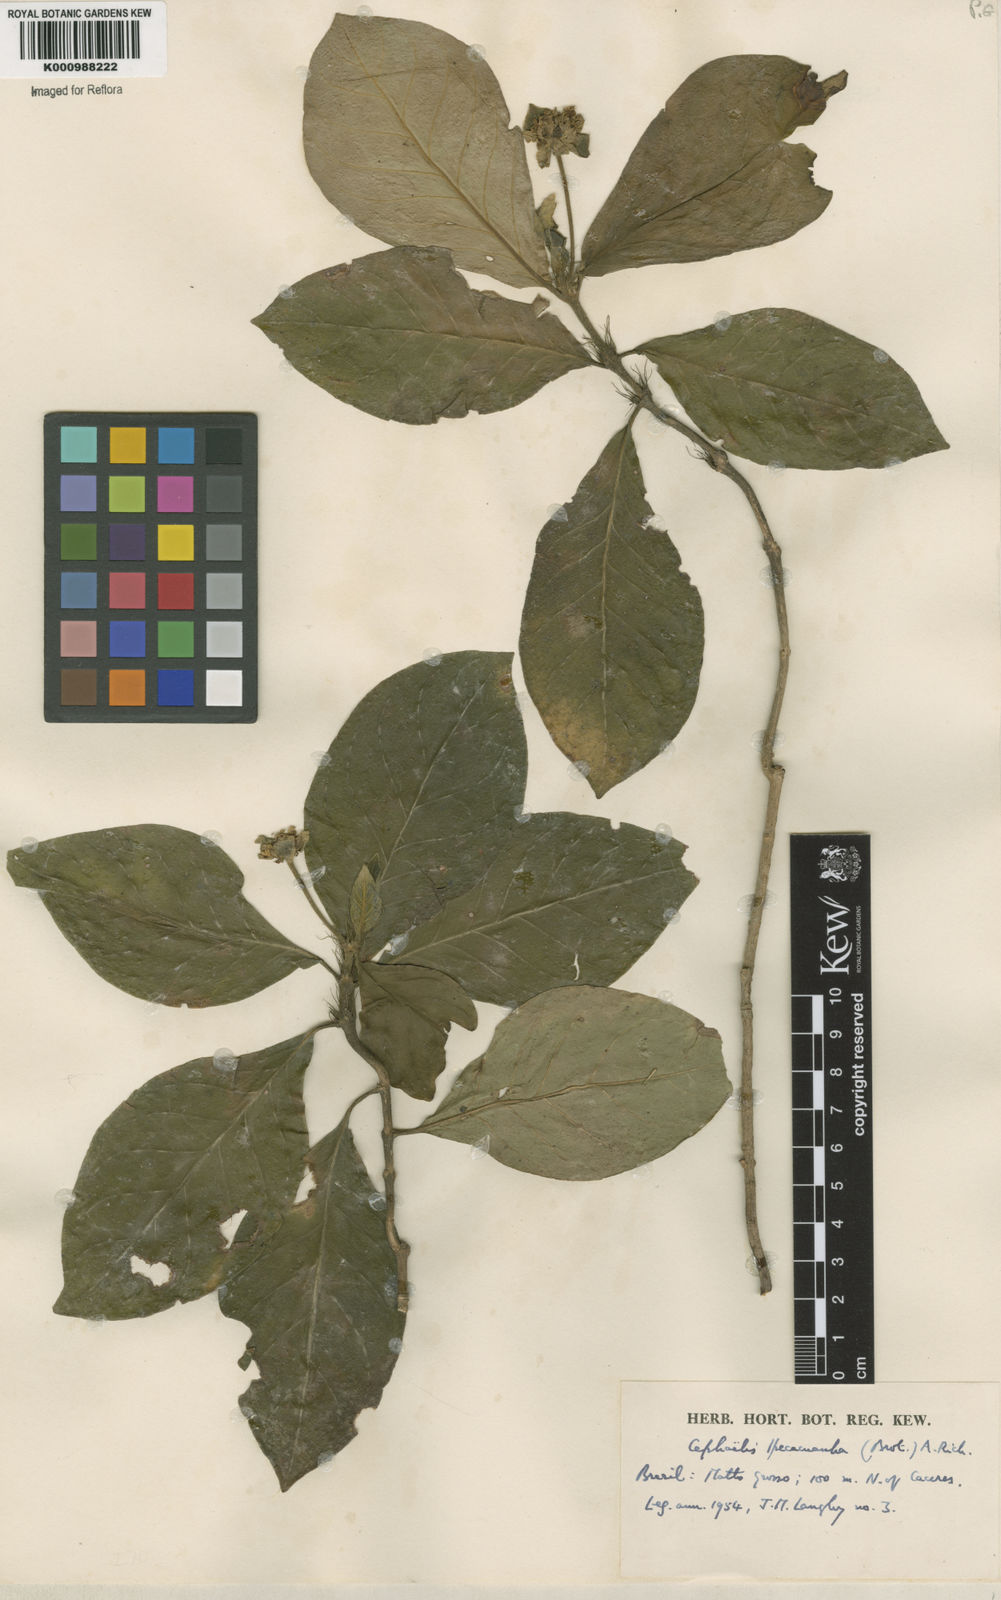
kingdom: Plantae
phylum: Tracheophyta
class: Magnoliopsida
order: Gentianales
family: Rubiaceae
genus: Carapichea
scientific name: Carapichea ipecacuanha
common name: Ipecac
